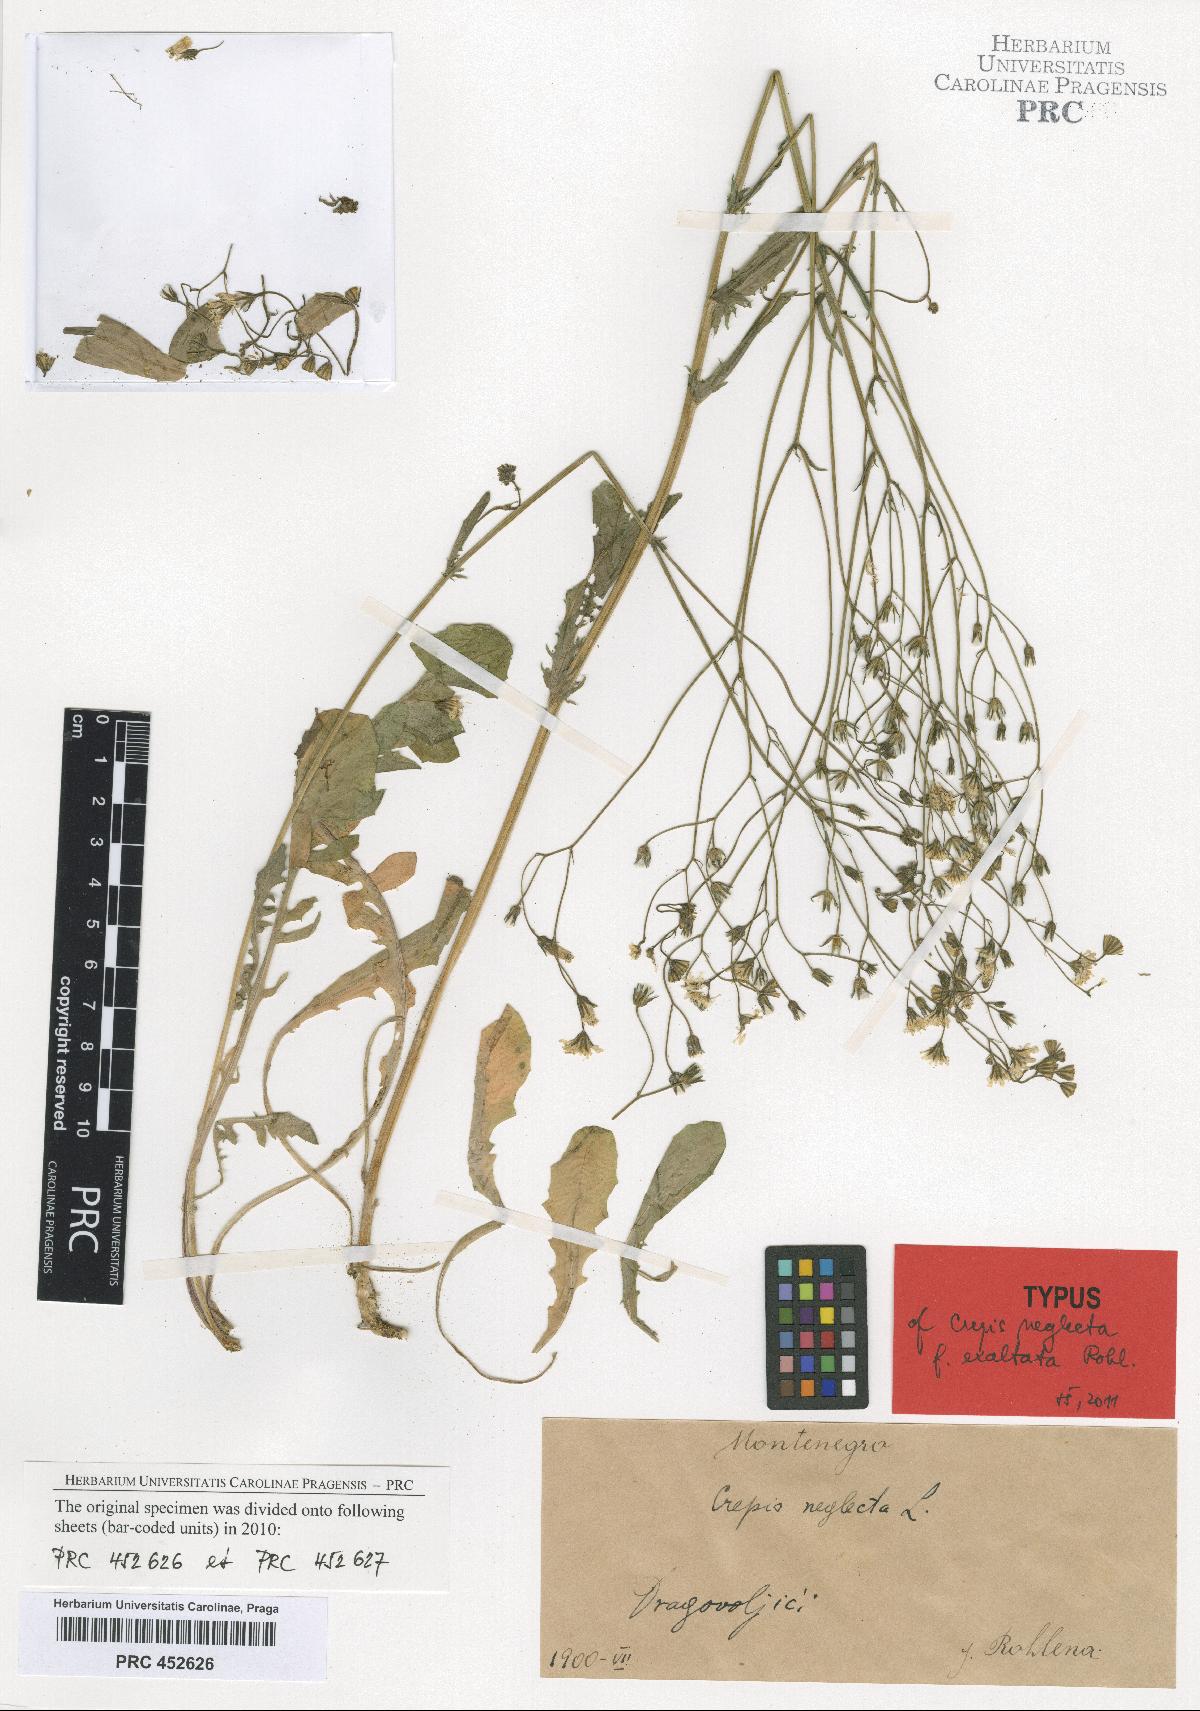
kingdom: Plantae
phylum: Tracheophyta
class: Magnoliopsida
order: Asterales
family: Asteraceae
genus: Crepis
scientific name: Crepis neglecta
